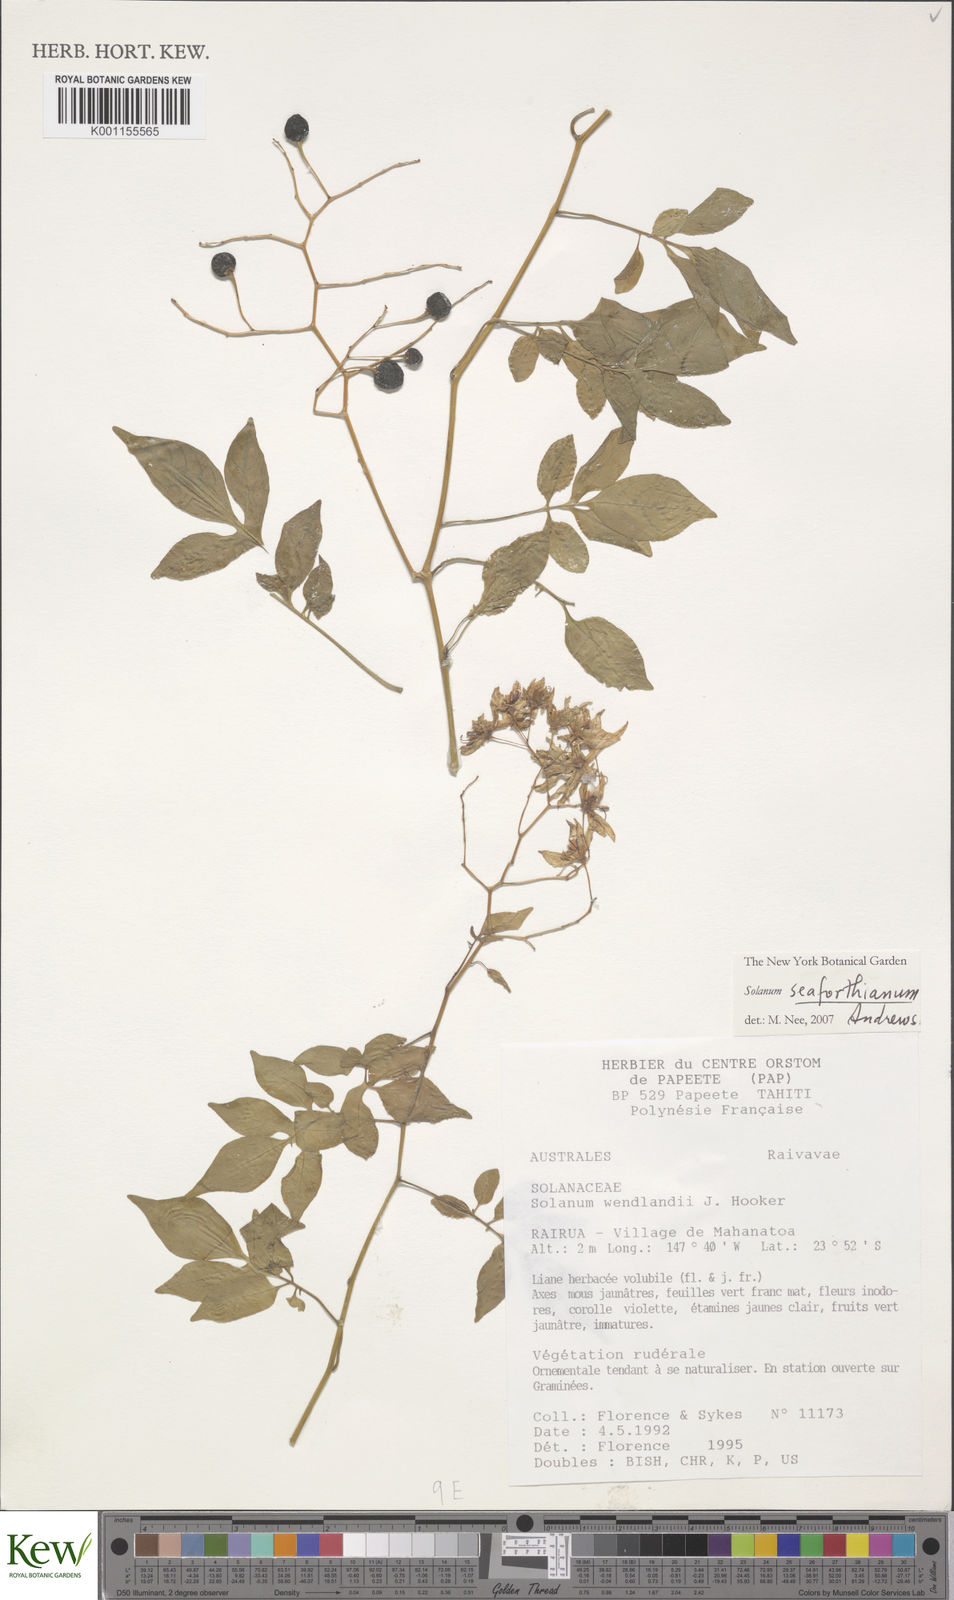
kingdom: Plantae
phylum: Tracheophyta
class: Magnoliopsida
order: Solanales
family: Solanaceae
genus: Solanum
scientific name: Solanum seaforthianum
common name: Brazilian nightshade
